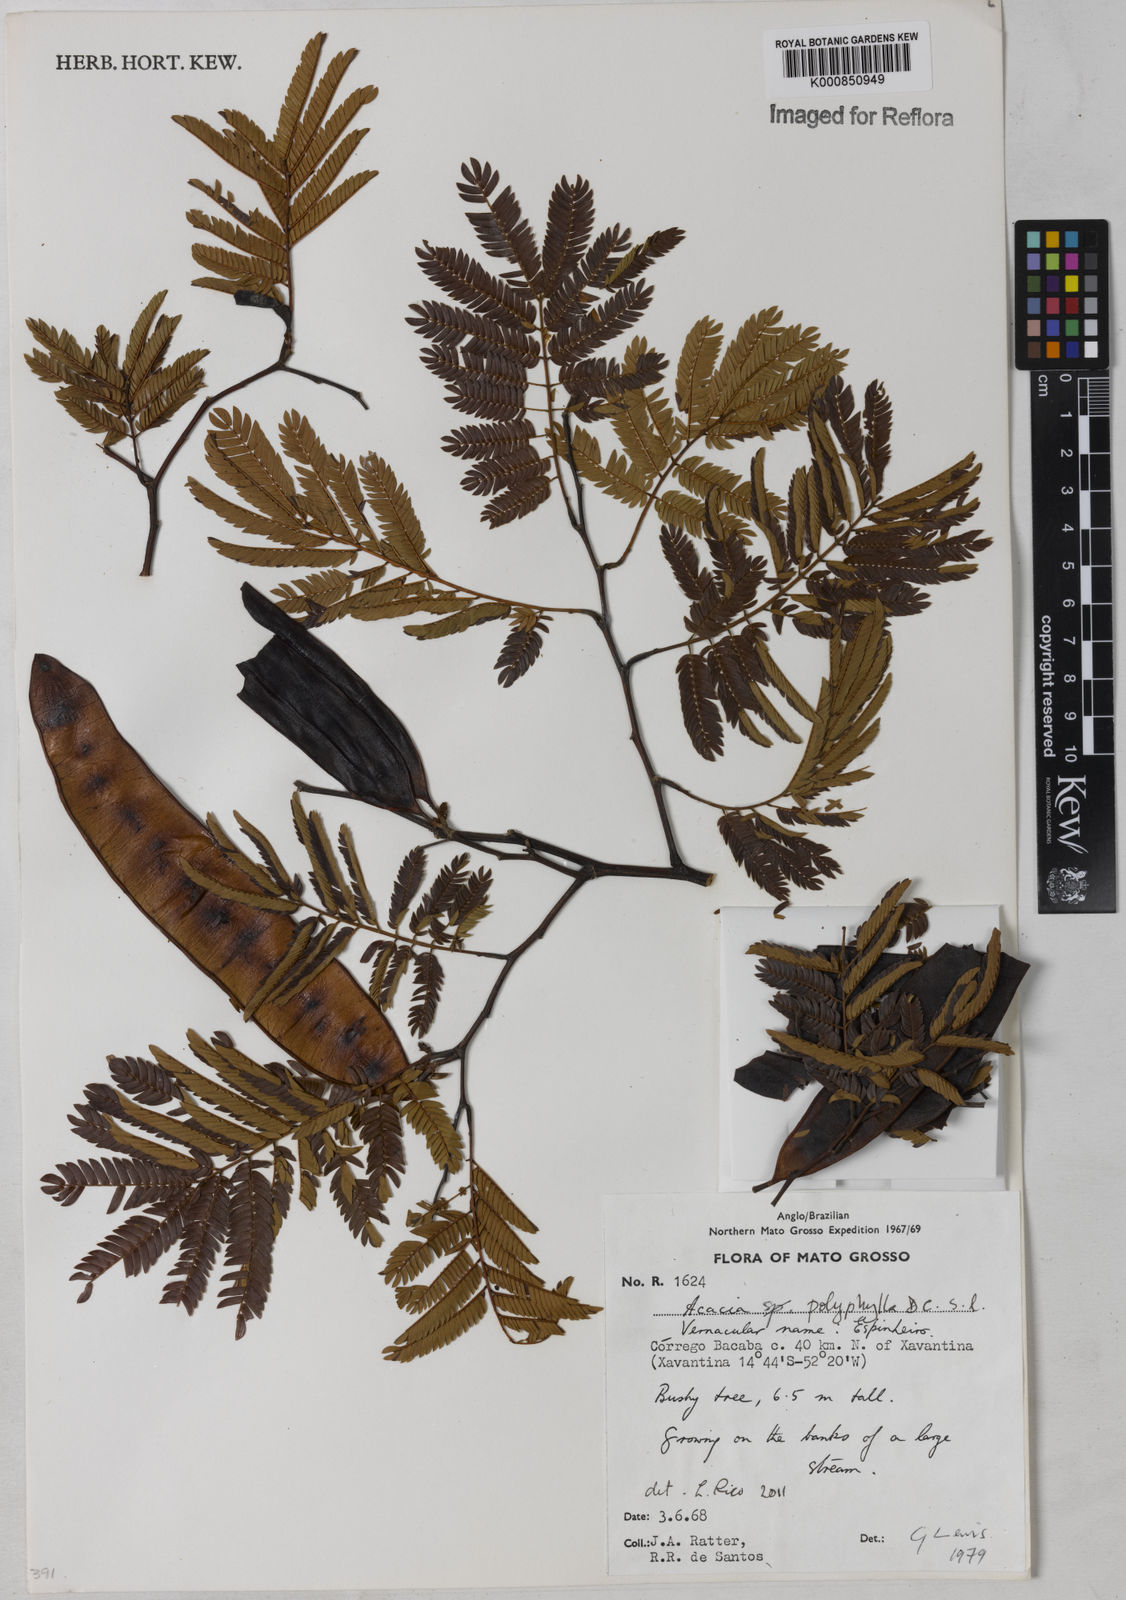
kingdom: Plantae
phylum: Tracheophyta
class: Magnoliopsida
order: Fabales
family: Fabaceae
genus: Senegalia
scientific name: Senegalia polyphylla
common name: White-tamarind
